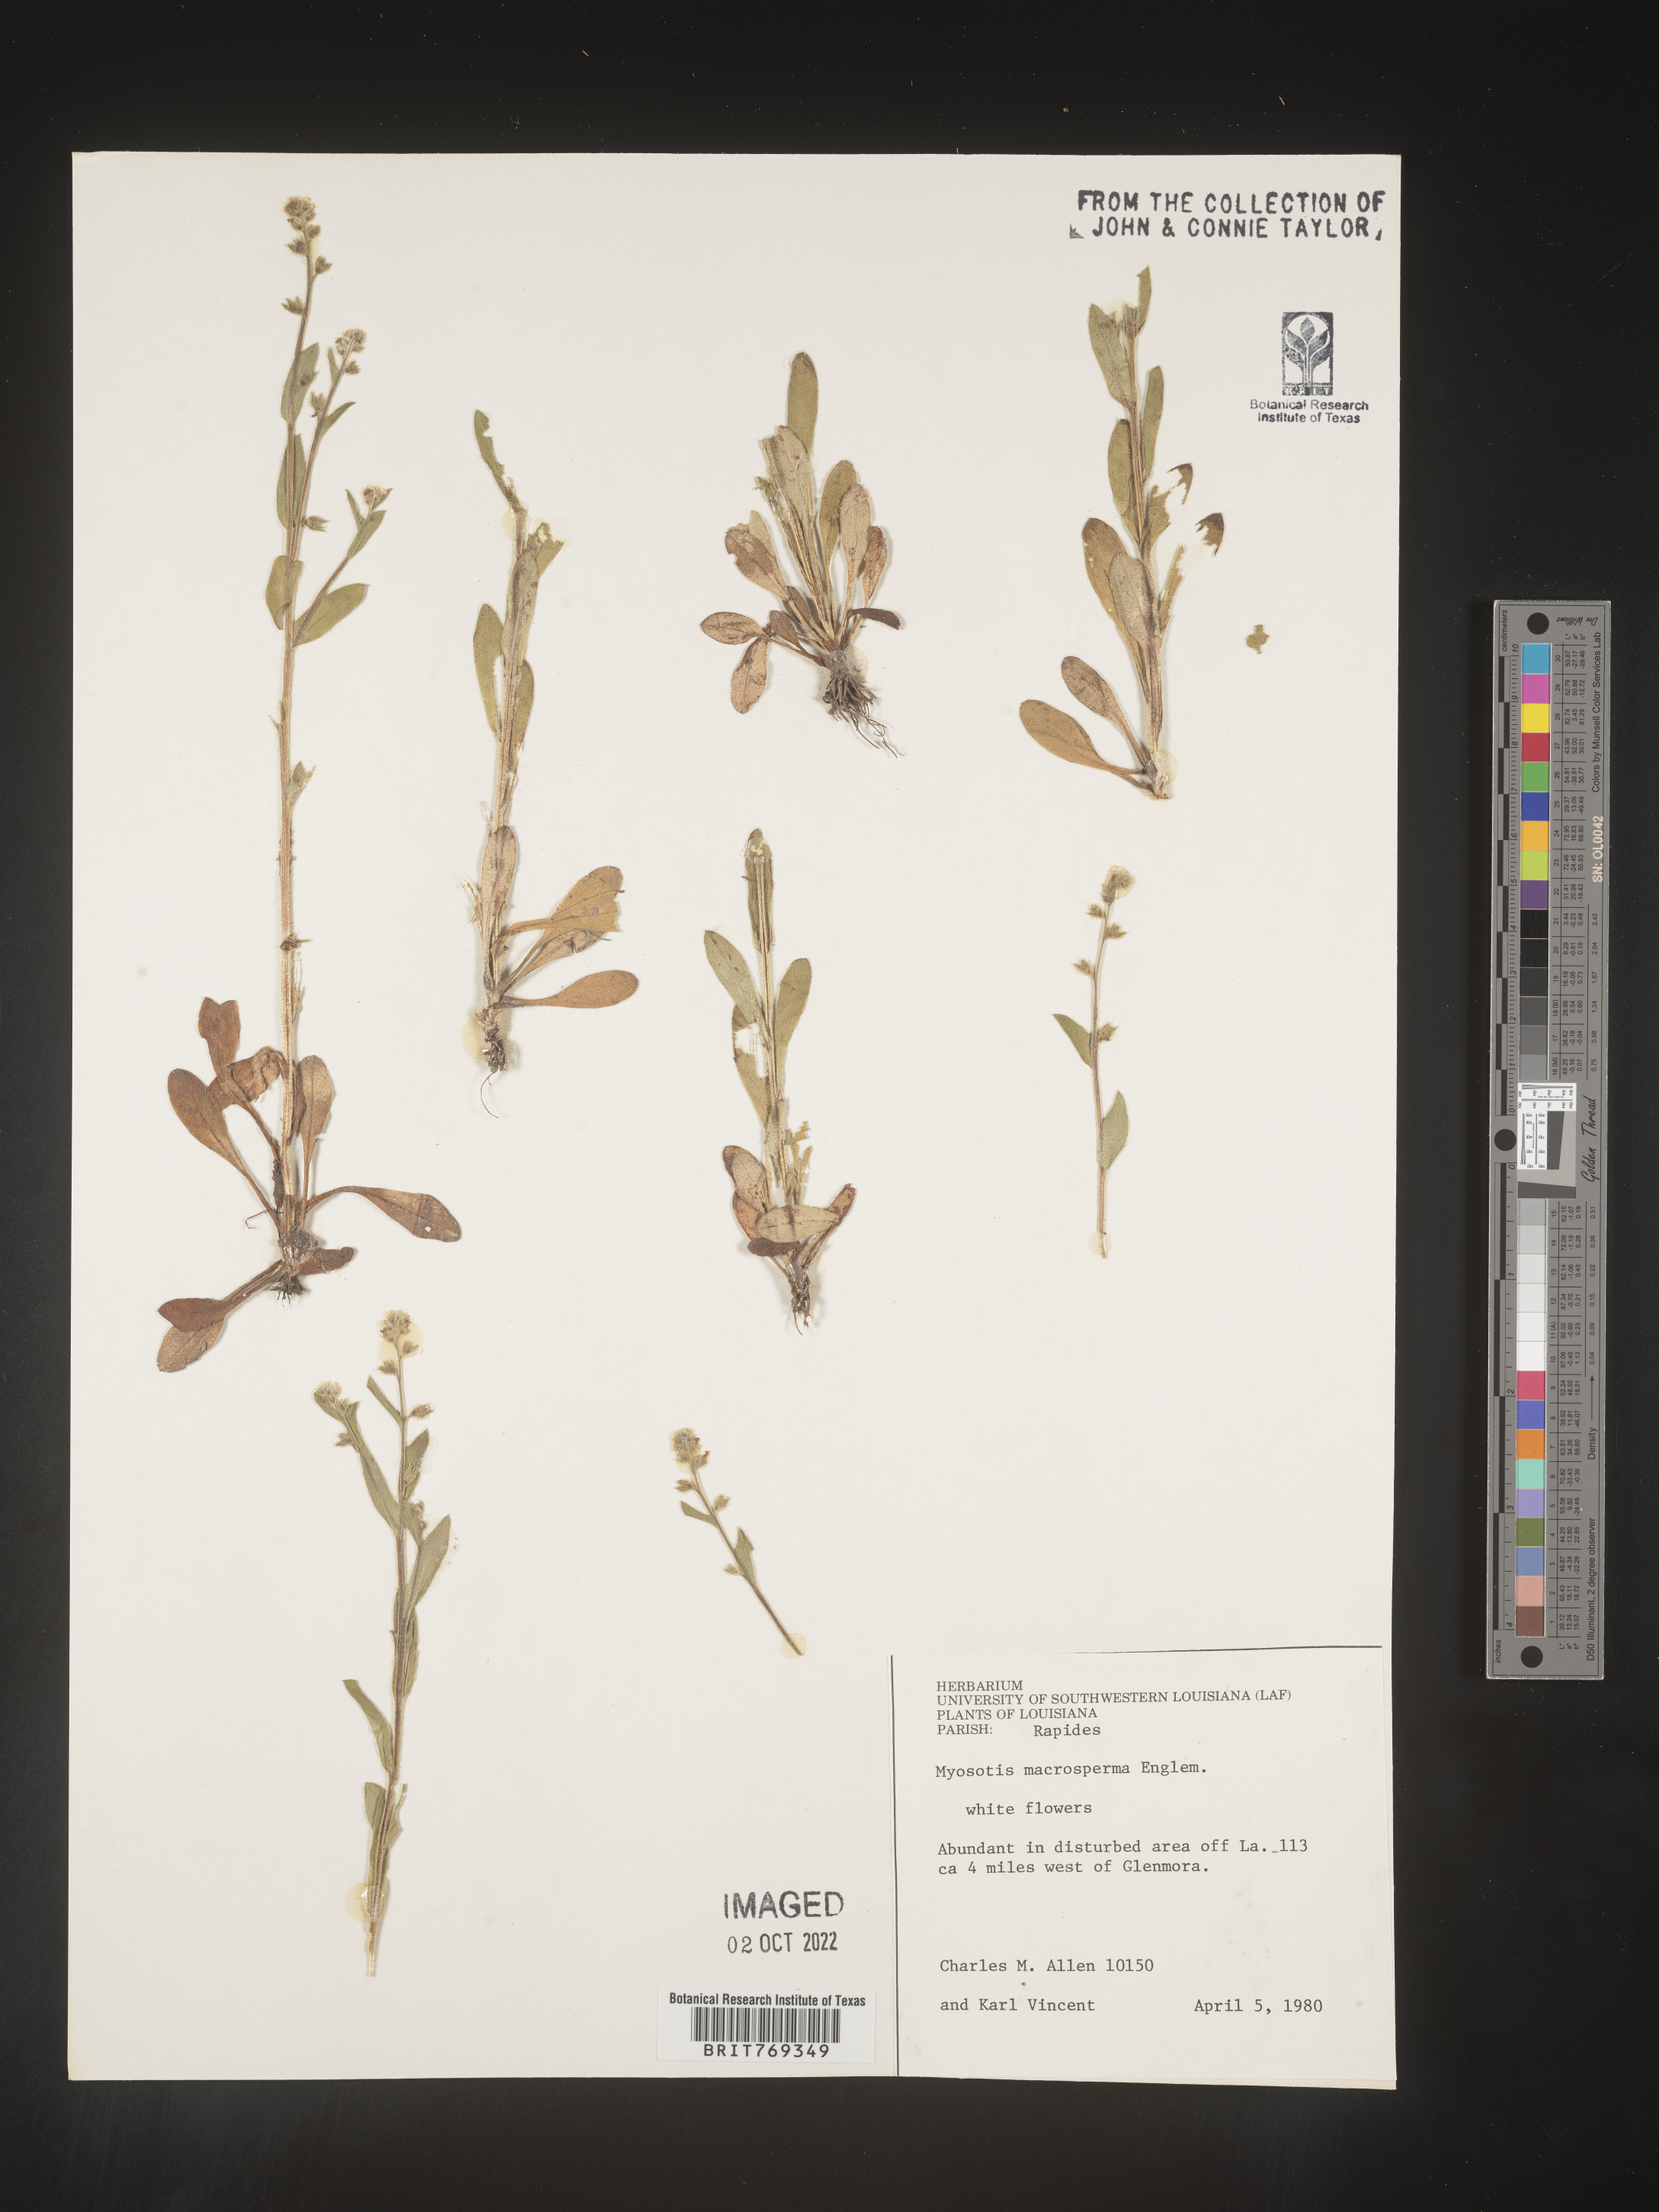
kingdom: Plantae
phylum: Tracheophyta
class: Magnoliopsida
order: Boraginales
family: Boraginaceae
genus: Myosotis
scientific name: Myosotis macrosperma
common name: Large-seed forget-me-not
